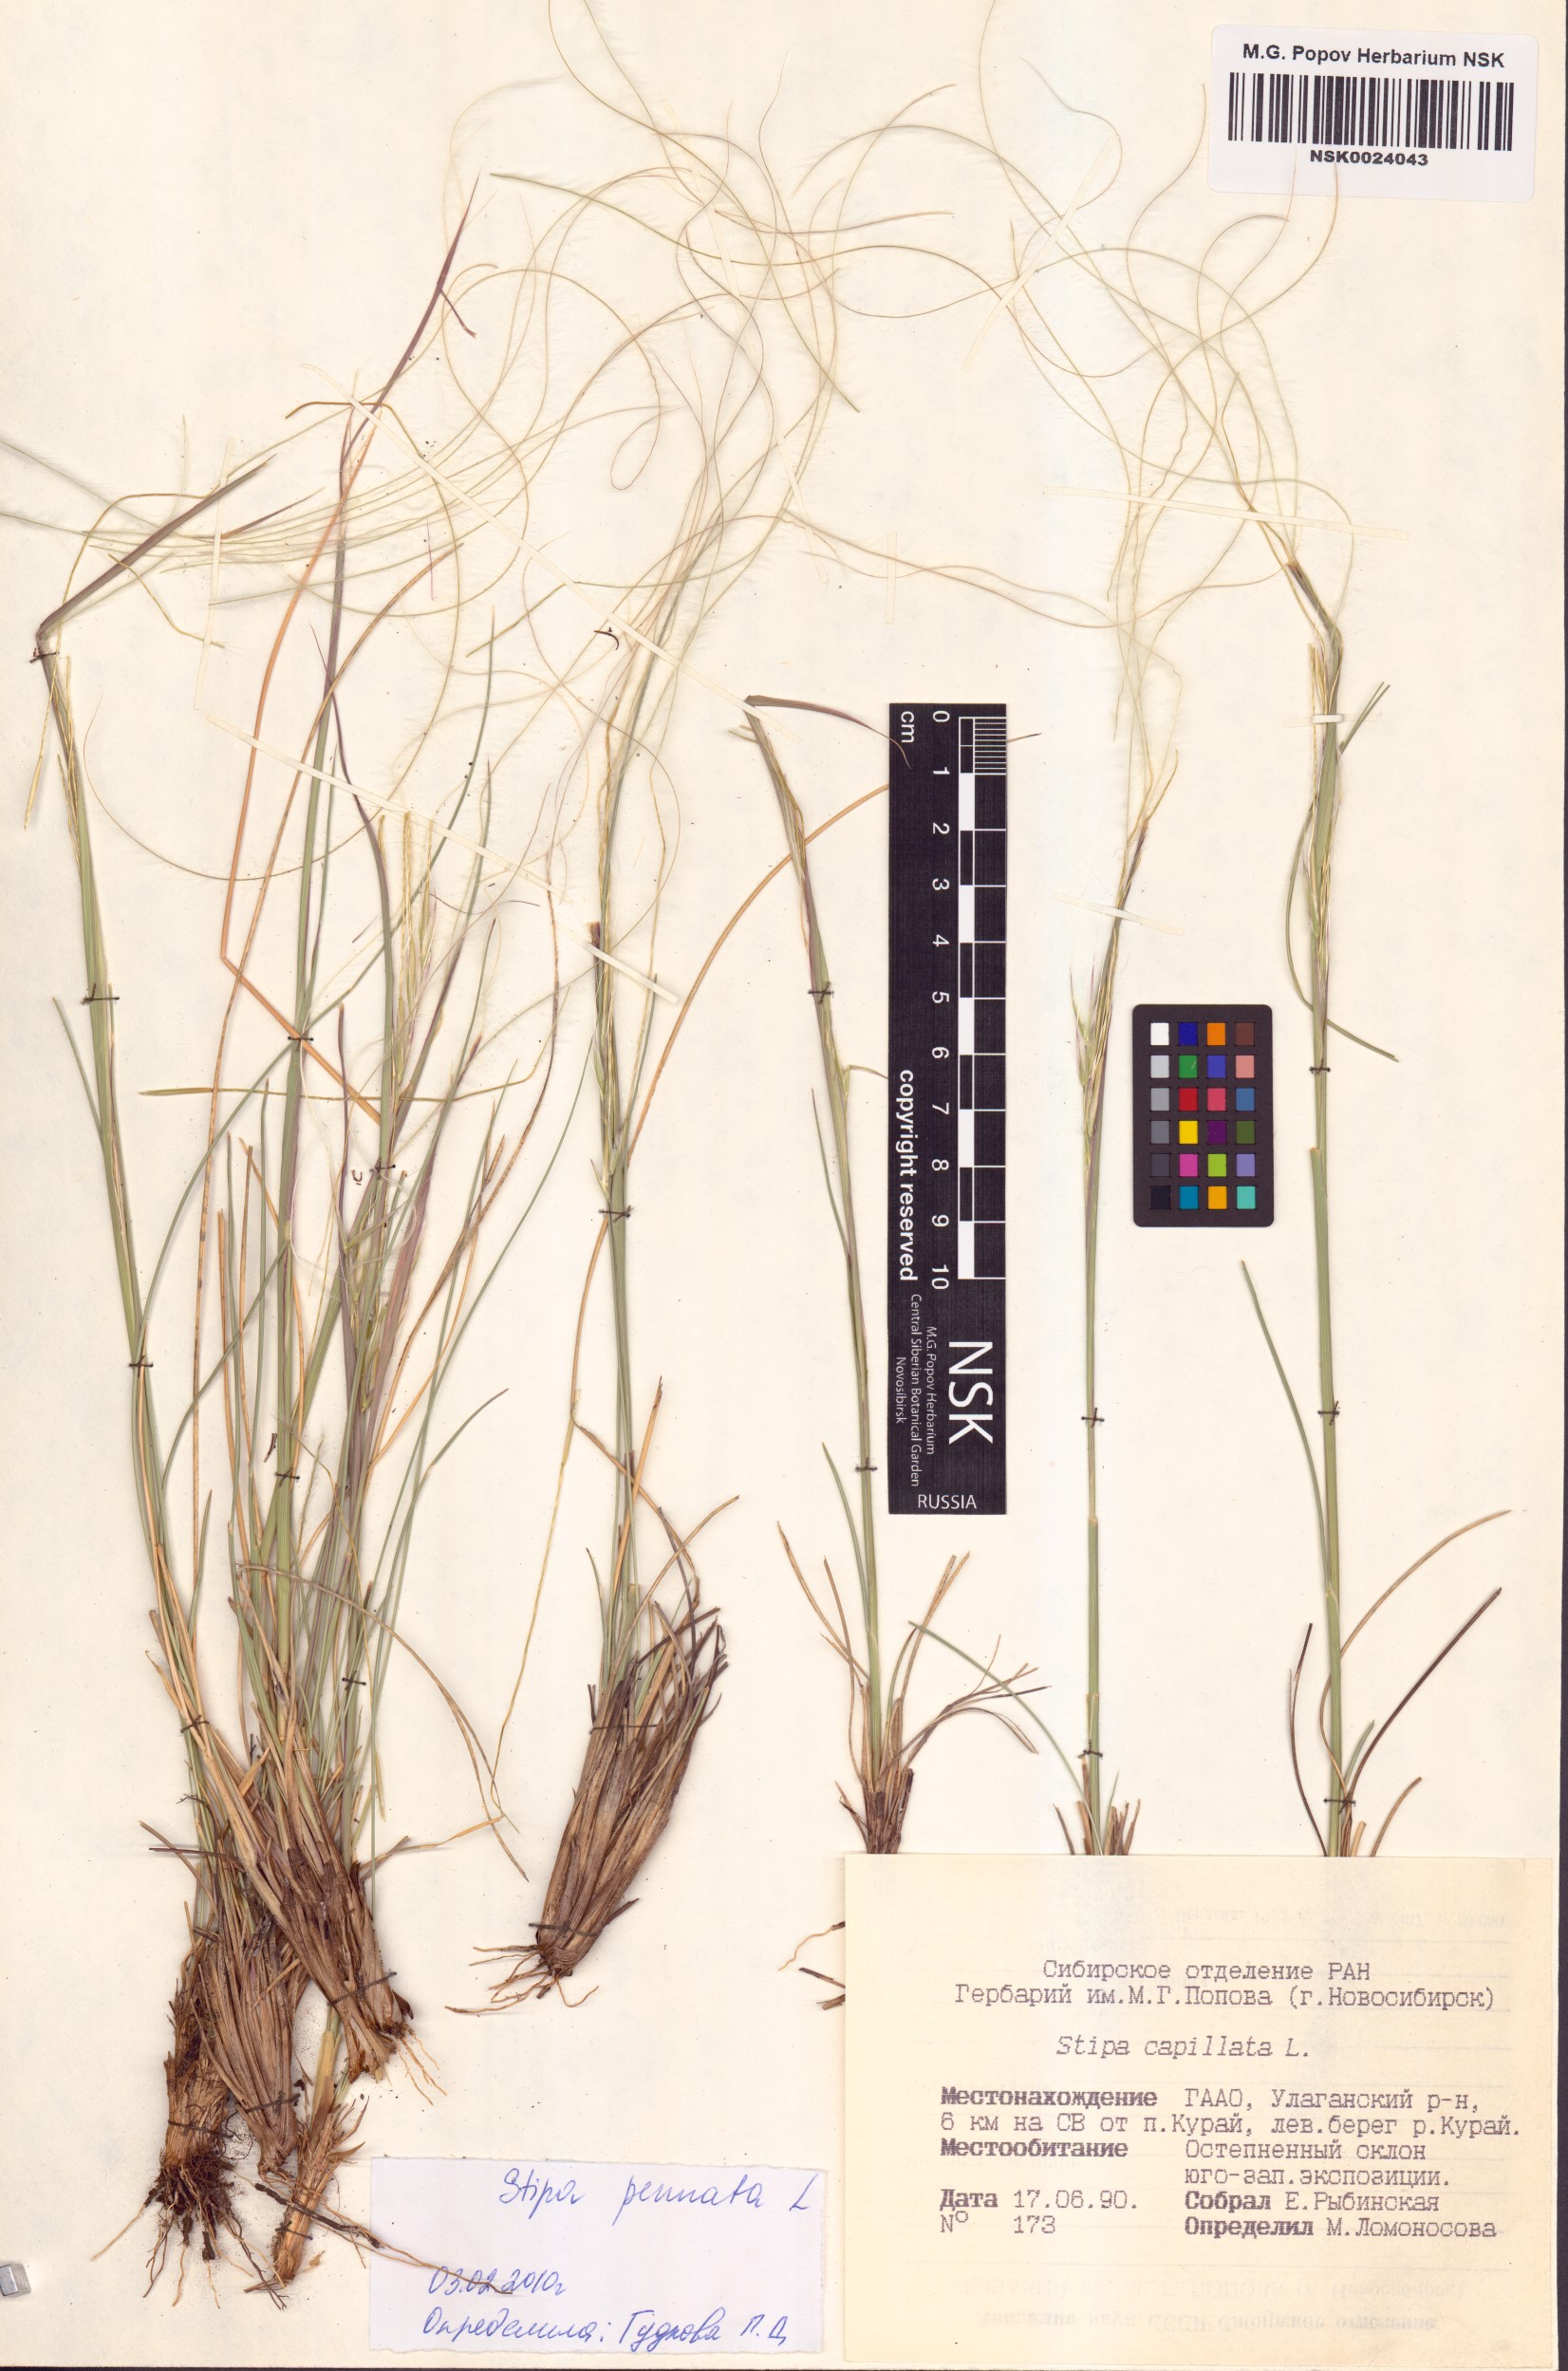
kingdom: Plantae
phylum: Tracheophyta
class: Liliopsida
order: Poales
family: Poaceae
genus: Stipa
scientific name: Stipa pennata
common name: European feather grass
